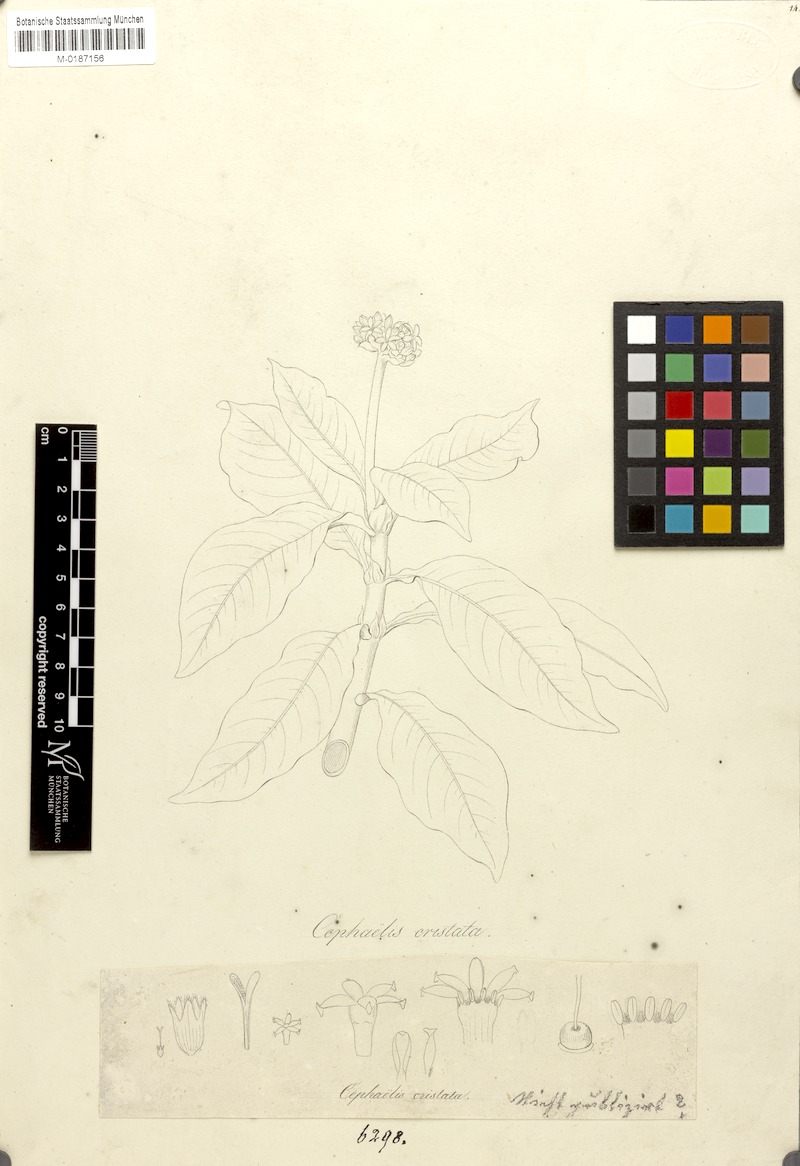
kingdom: Plantae
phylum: Tracheophyta
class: Magnoliopsida
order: Gentianales
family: Rubiaceae
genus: Psychotria
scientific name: Psychotria
